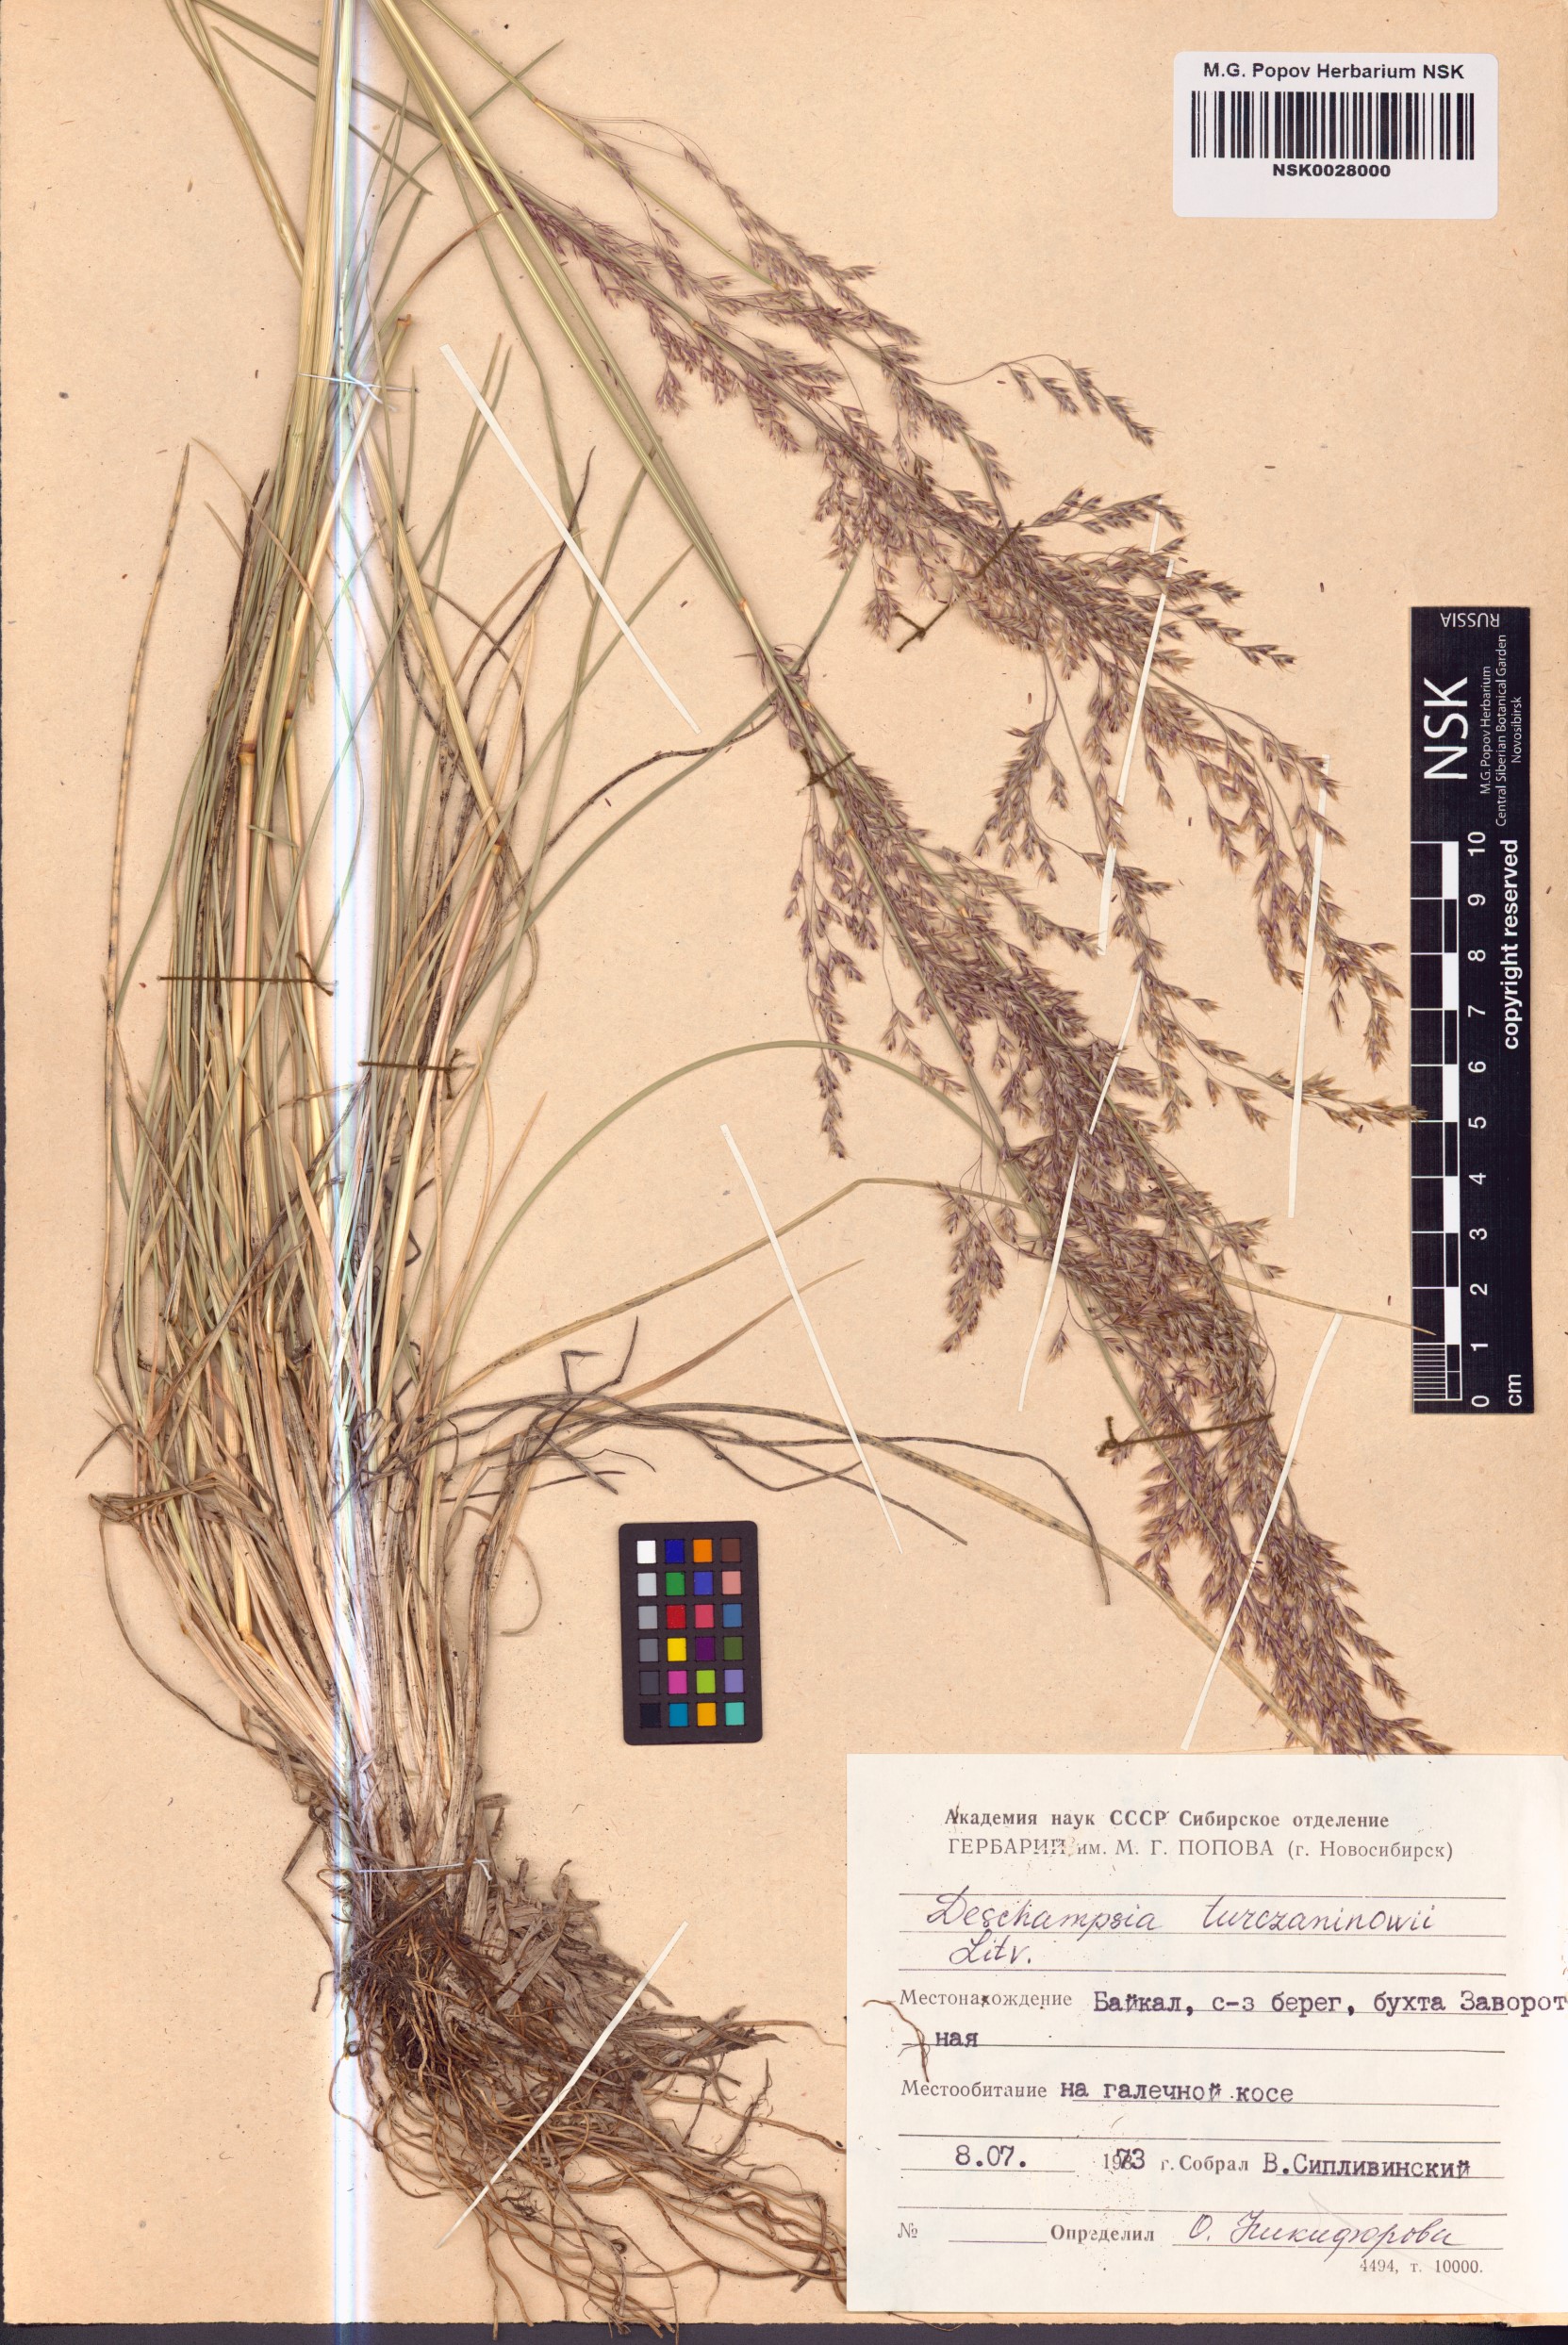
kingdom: Plantae
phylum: Tracheophyta
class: Liliopsida
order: Poales
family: Poaceae
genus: Deschampsia
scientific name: Deschampsia cespitosa
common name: Tufted hair-grass
